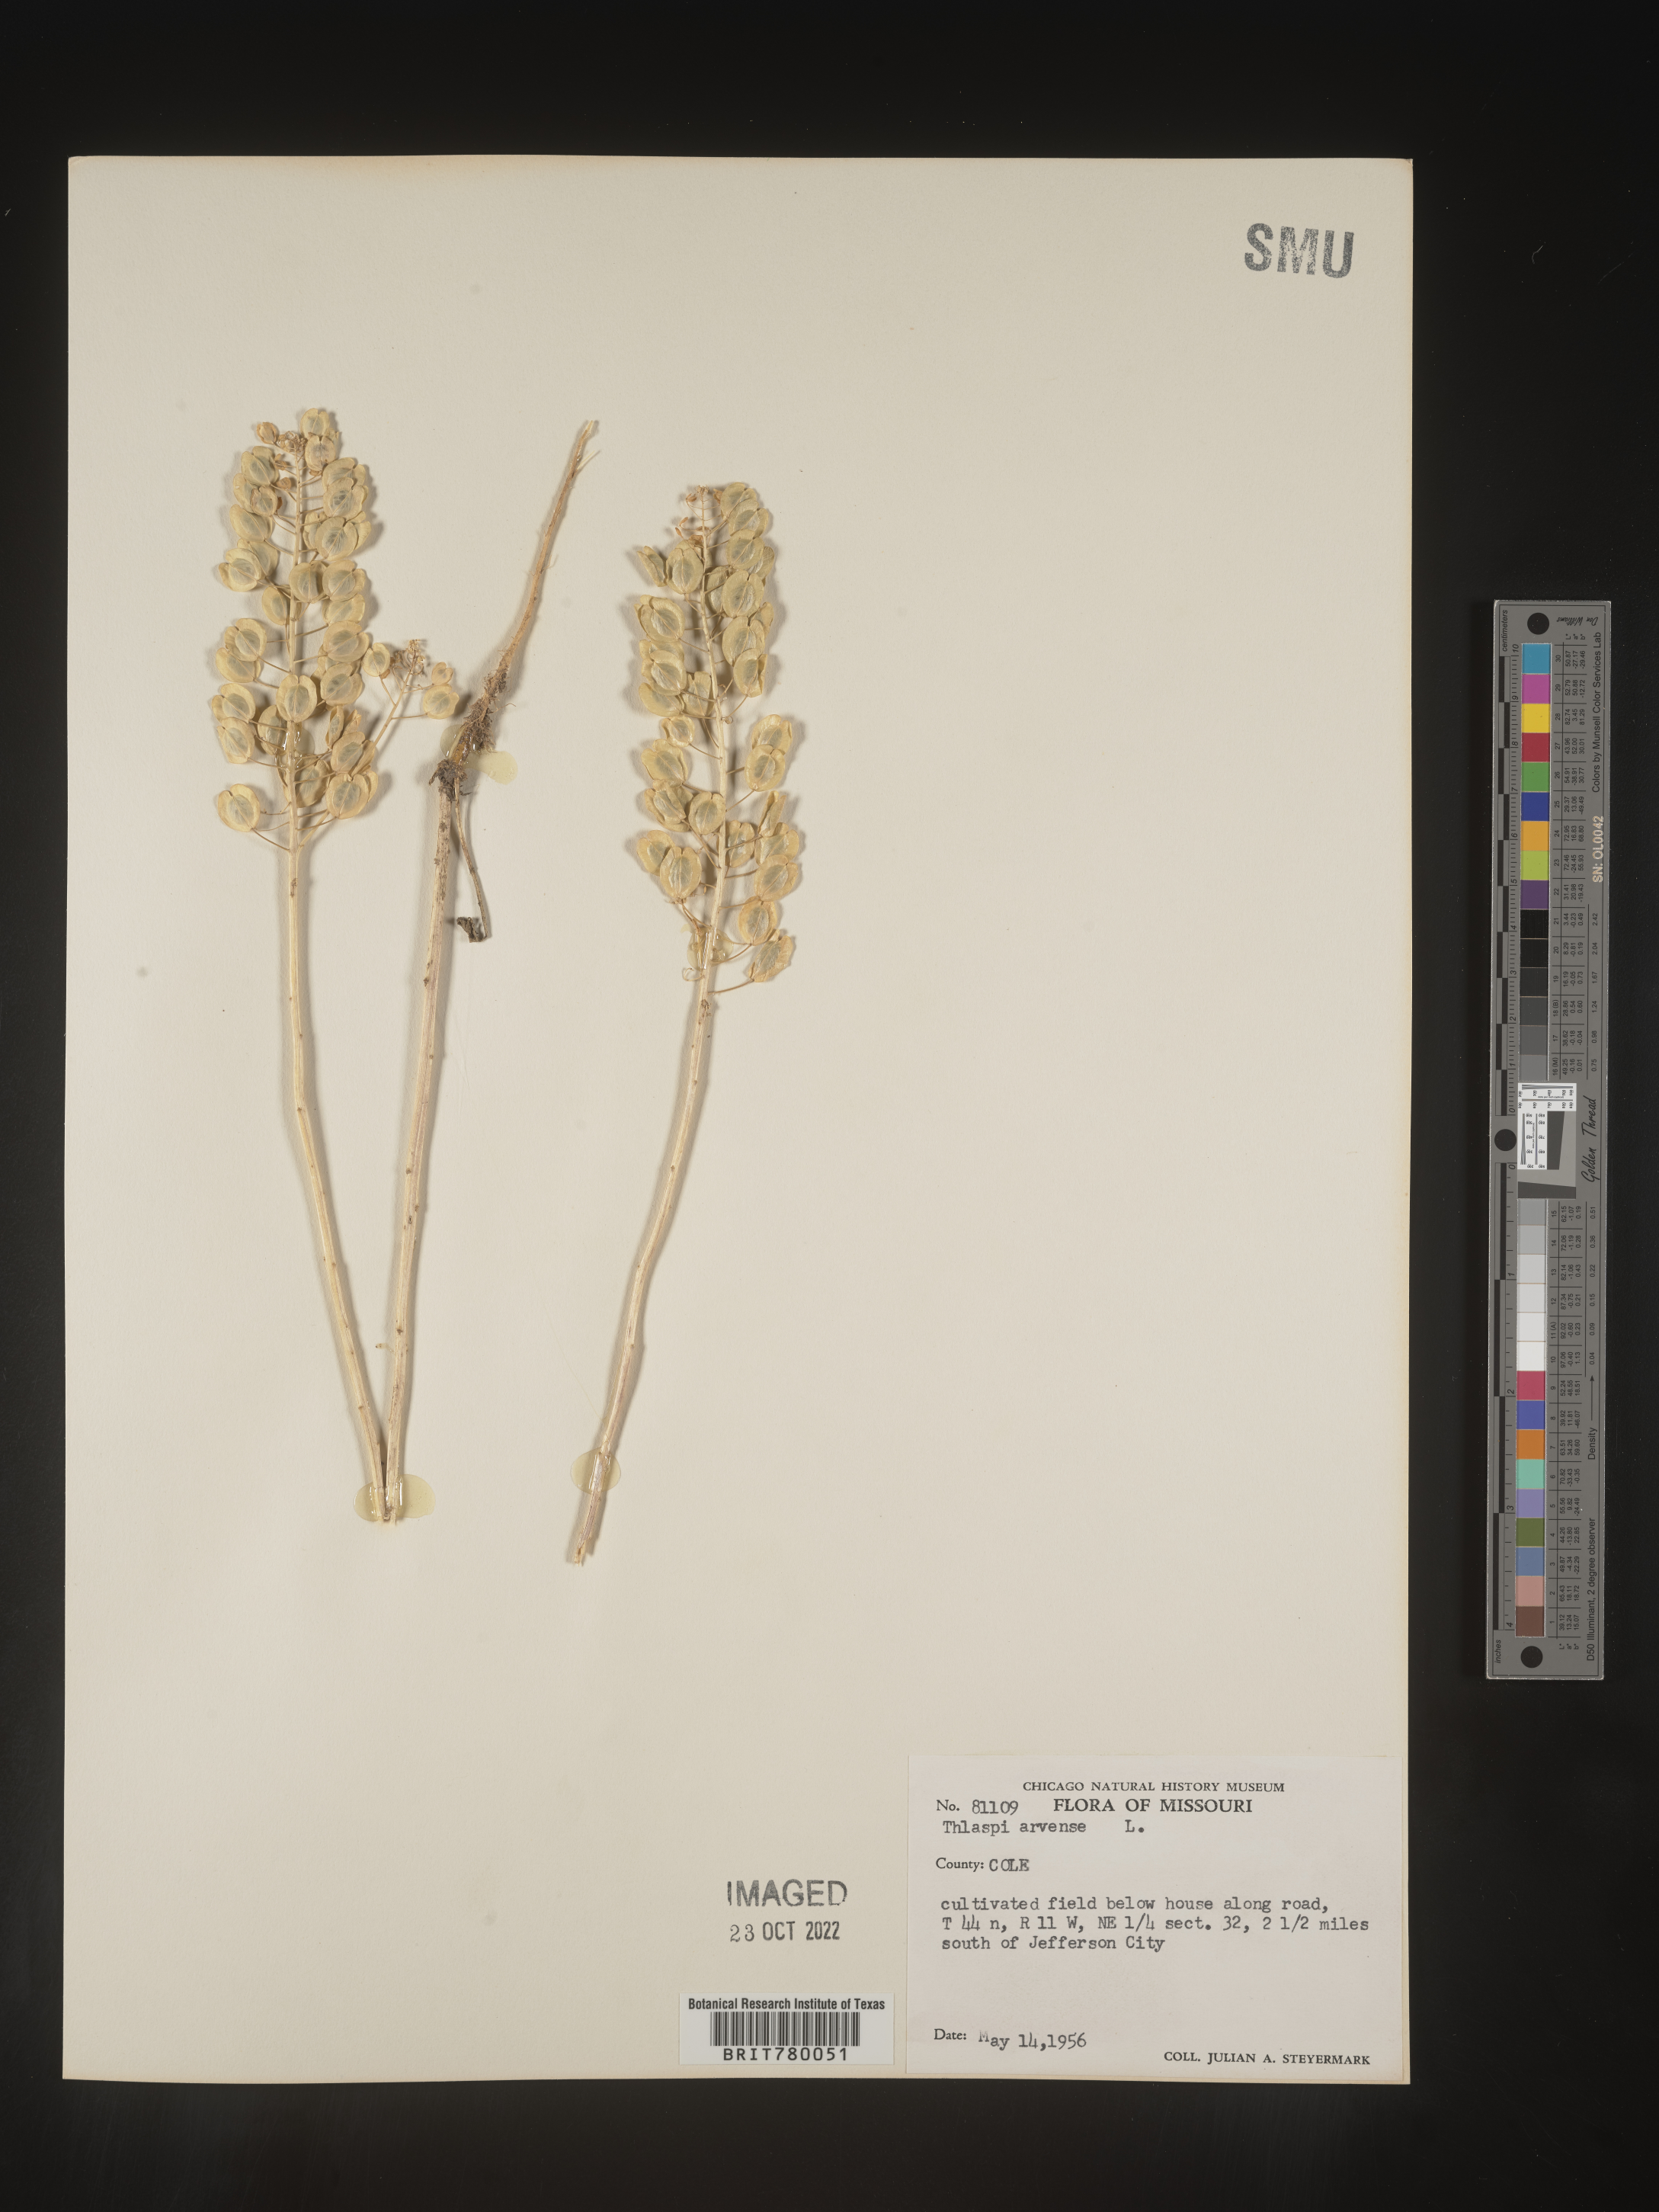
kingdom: Plantae
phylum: Tracheophyta
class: Magnoliopsida
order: Brassicales
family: Brassicaceae
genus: Thlaspi
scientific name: Thlaspi arvense
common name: Field pennycress
